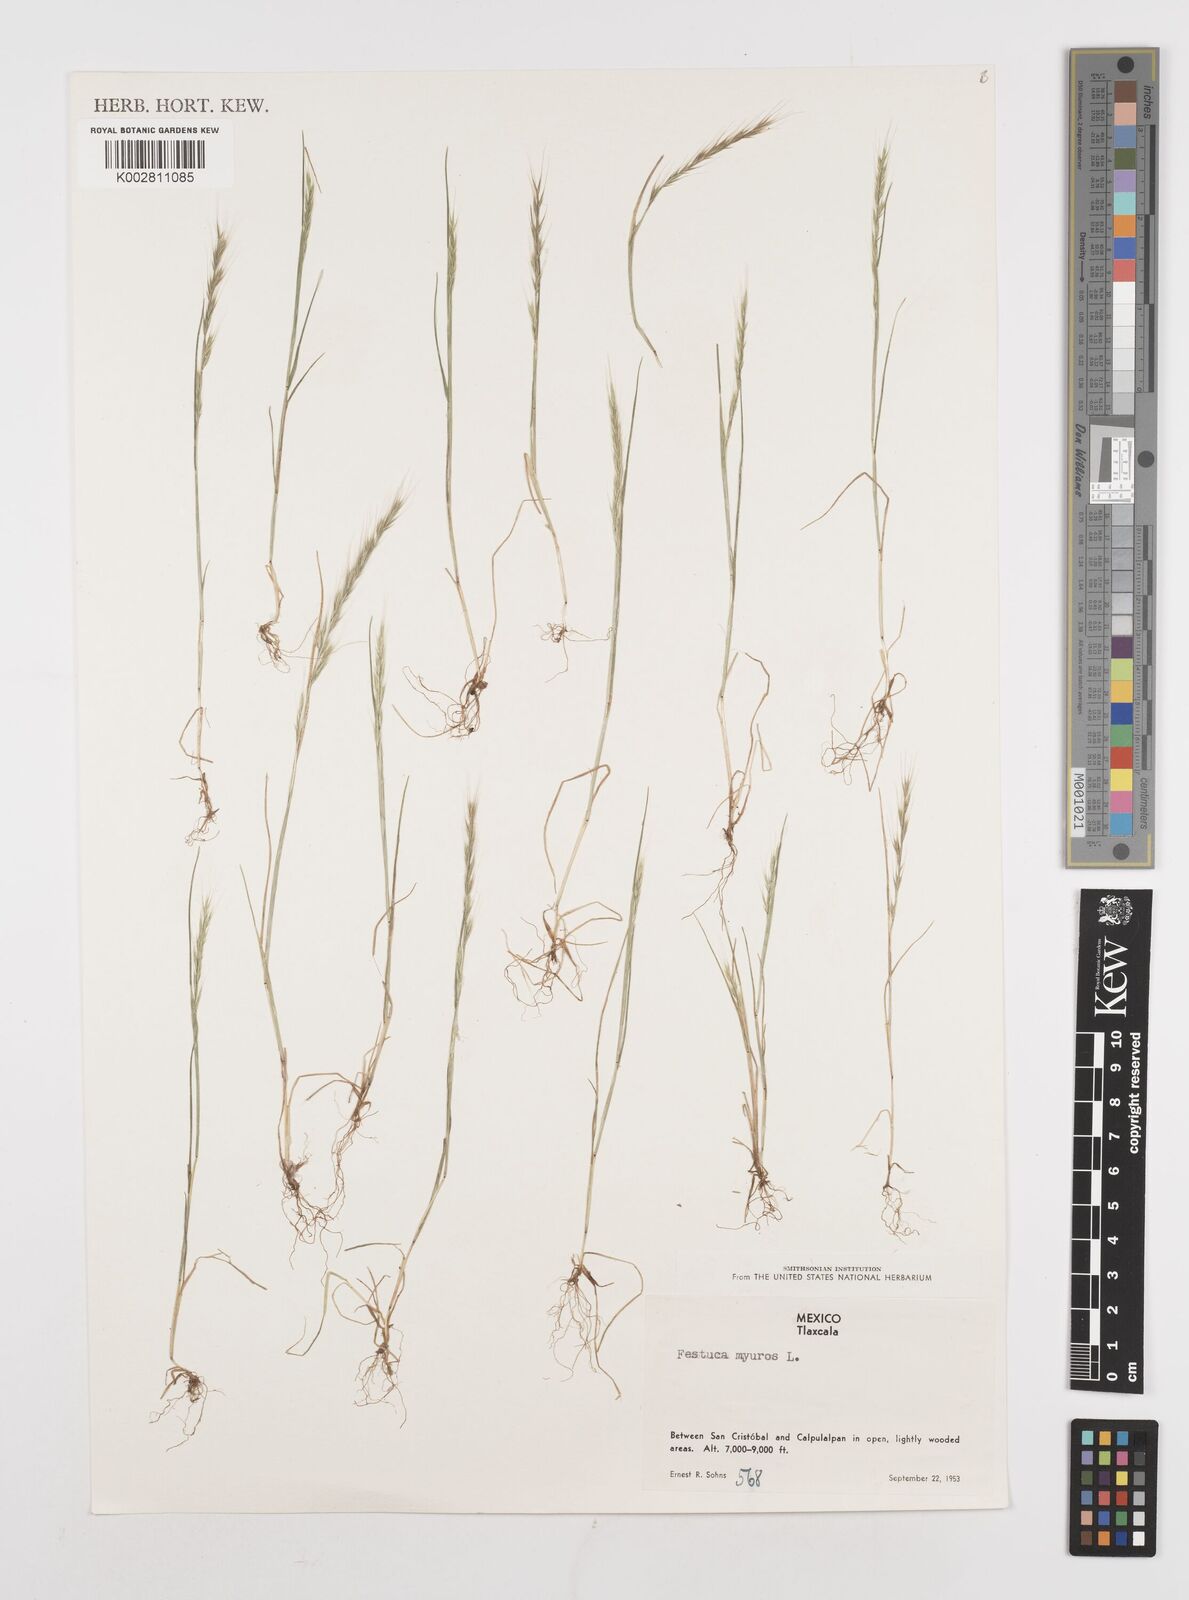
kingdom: Plantae
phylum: Tracheophyta
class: Liliopsida
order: Poales
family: Poaceae
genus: Festuca
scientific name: Festuca myuros
